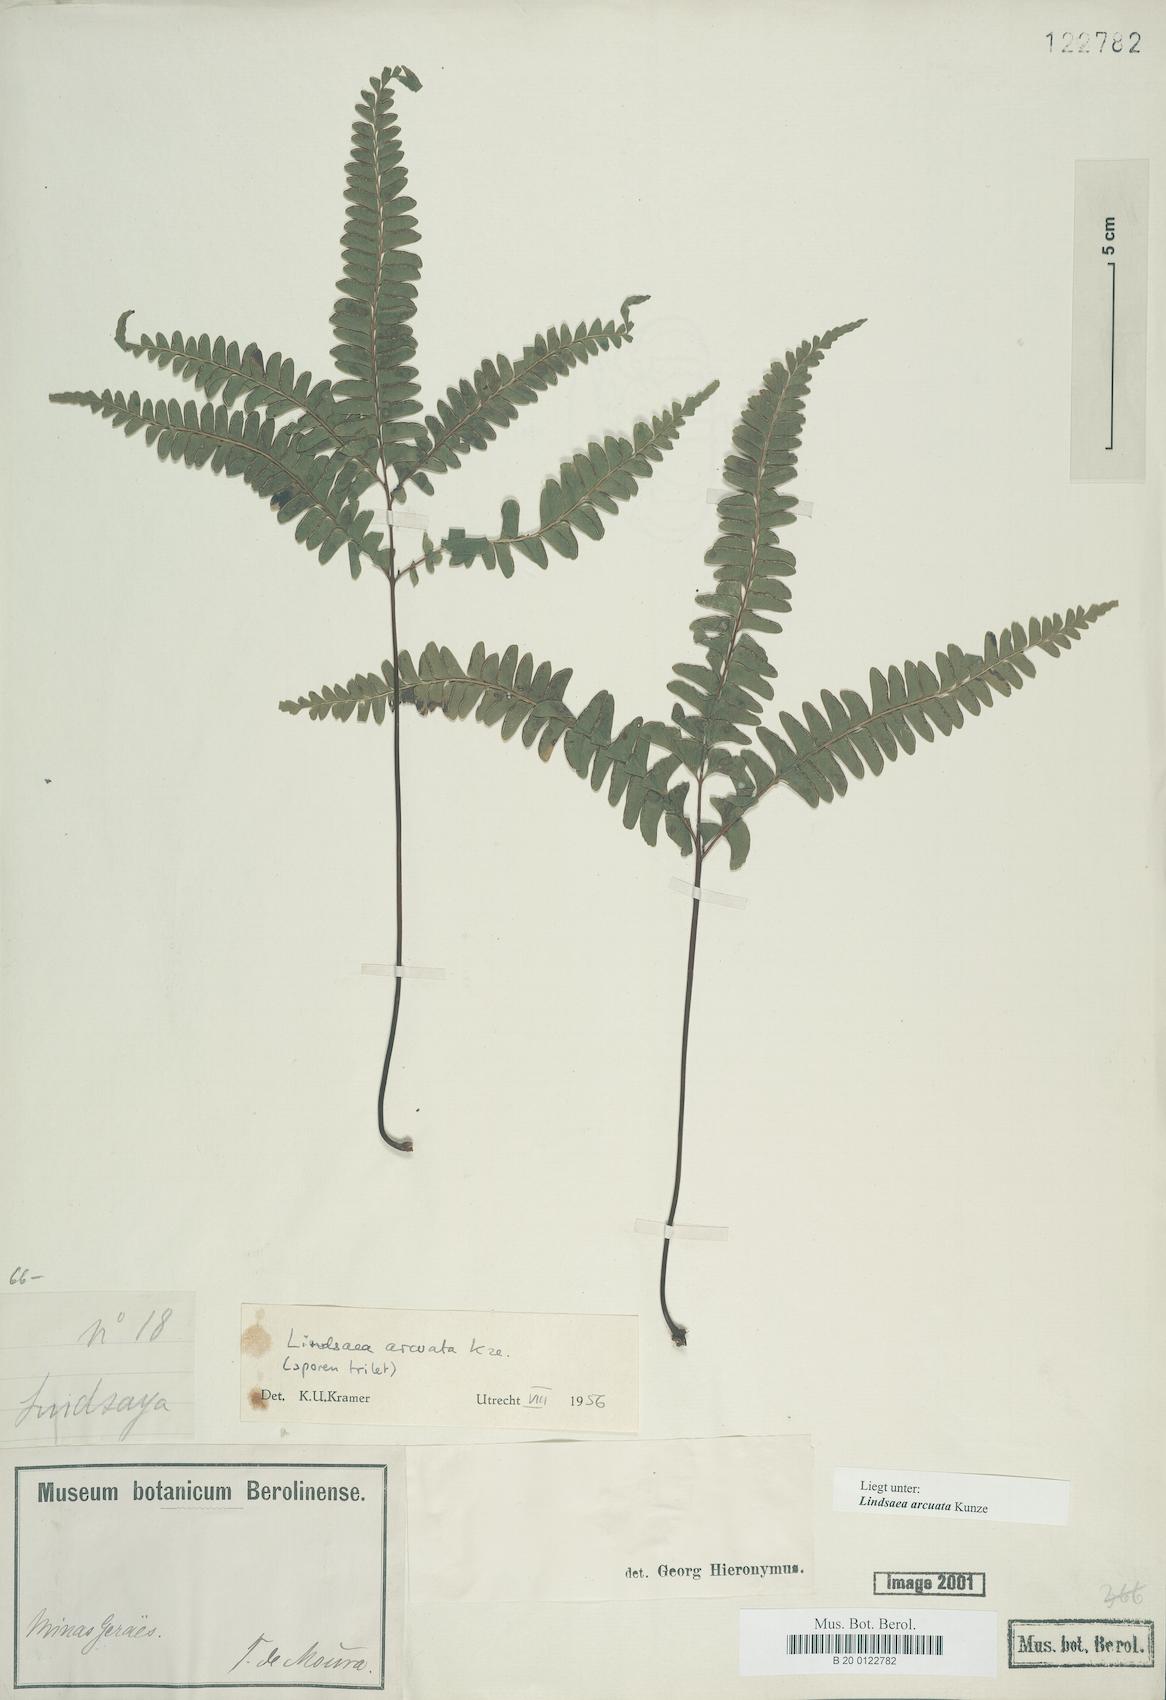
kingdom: Plantae
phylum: Tracheophyta
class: Polypodiopsida
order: Polypodiales
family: Lindsaeaceae
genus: Lindsaea
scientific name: Lindsaea arcuata
